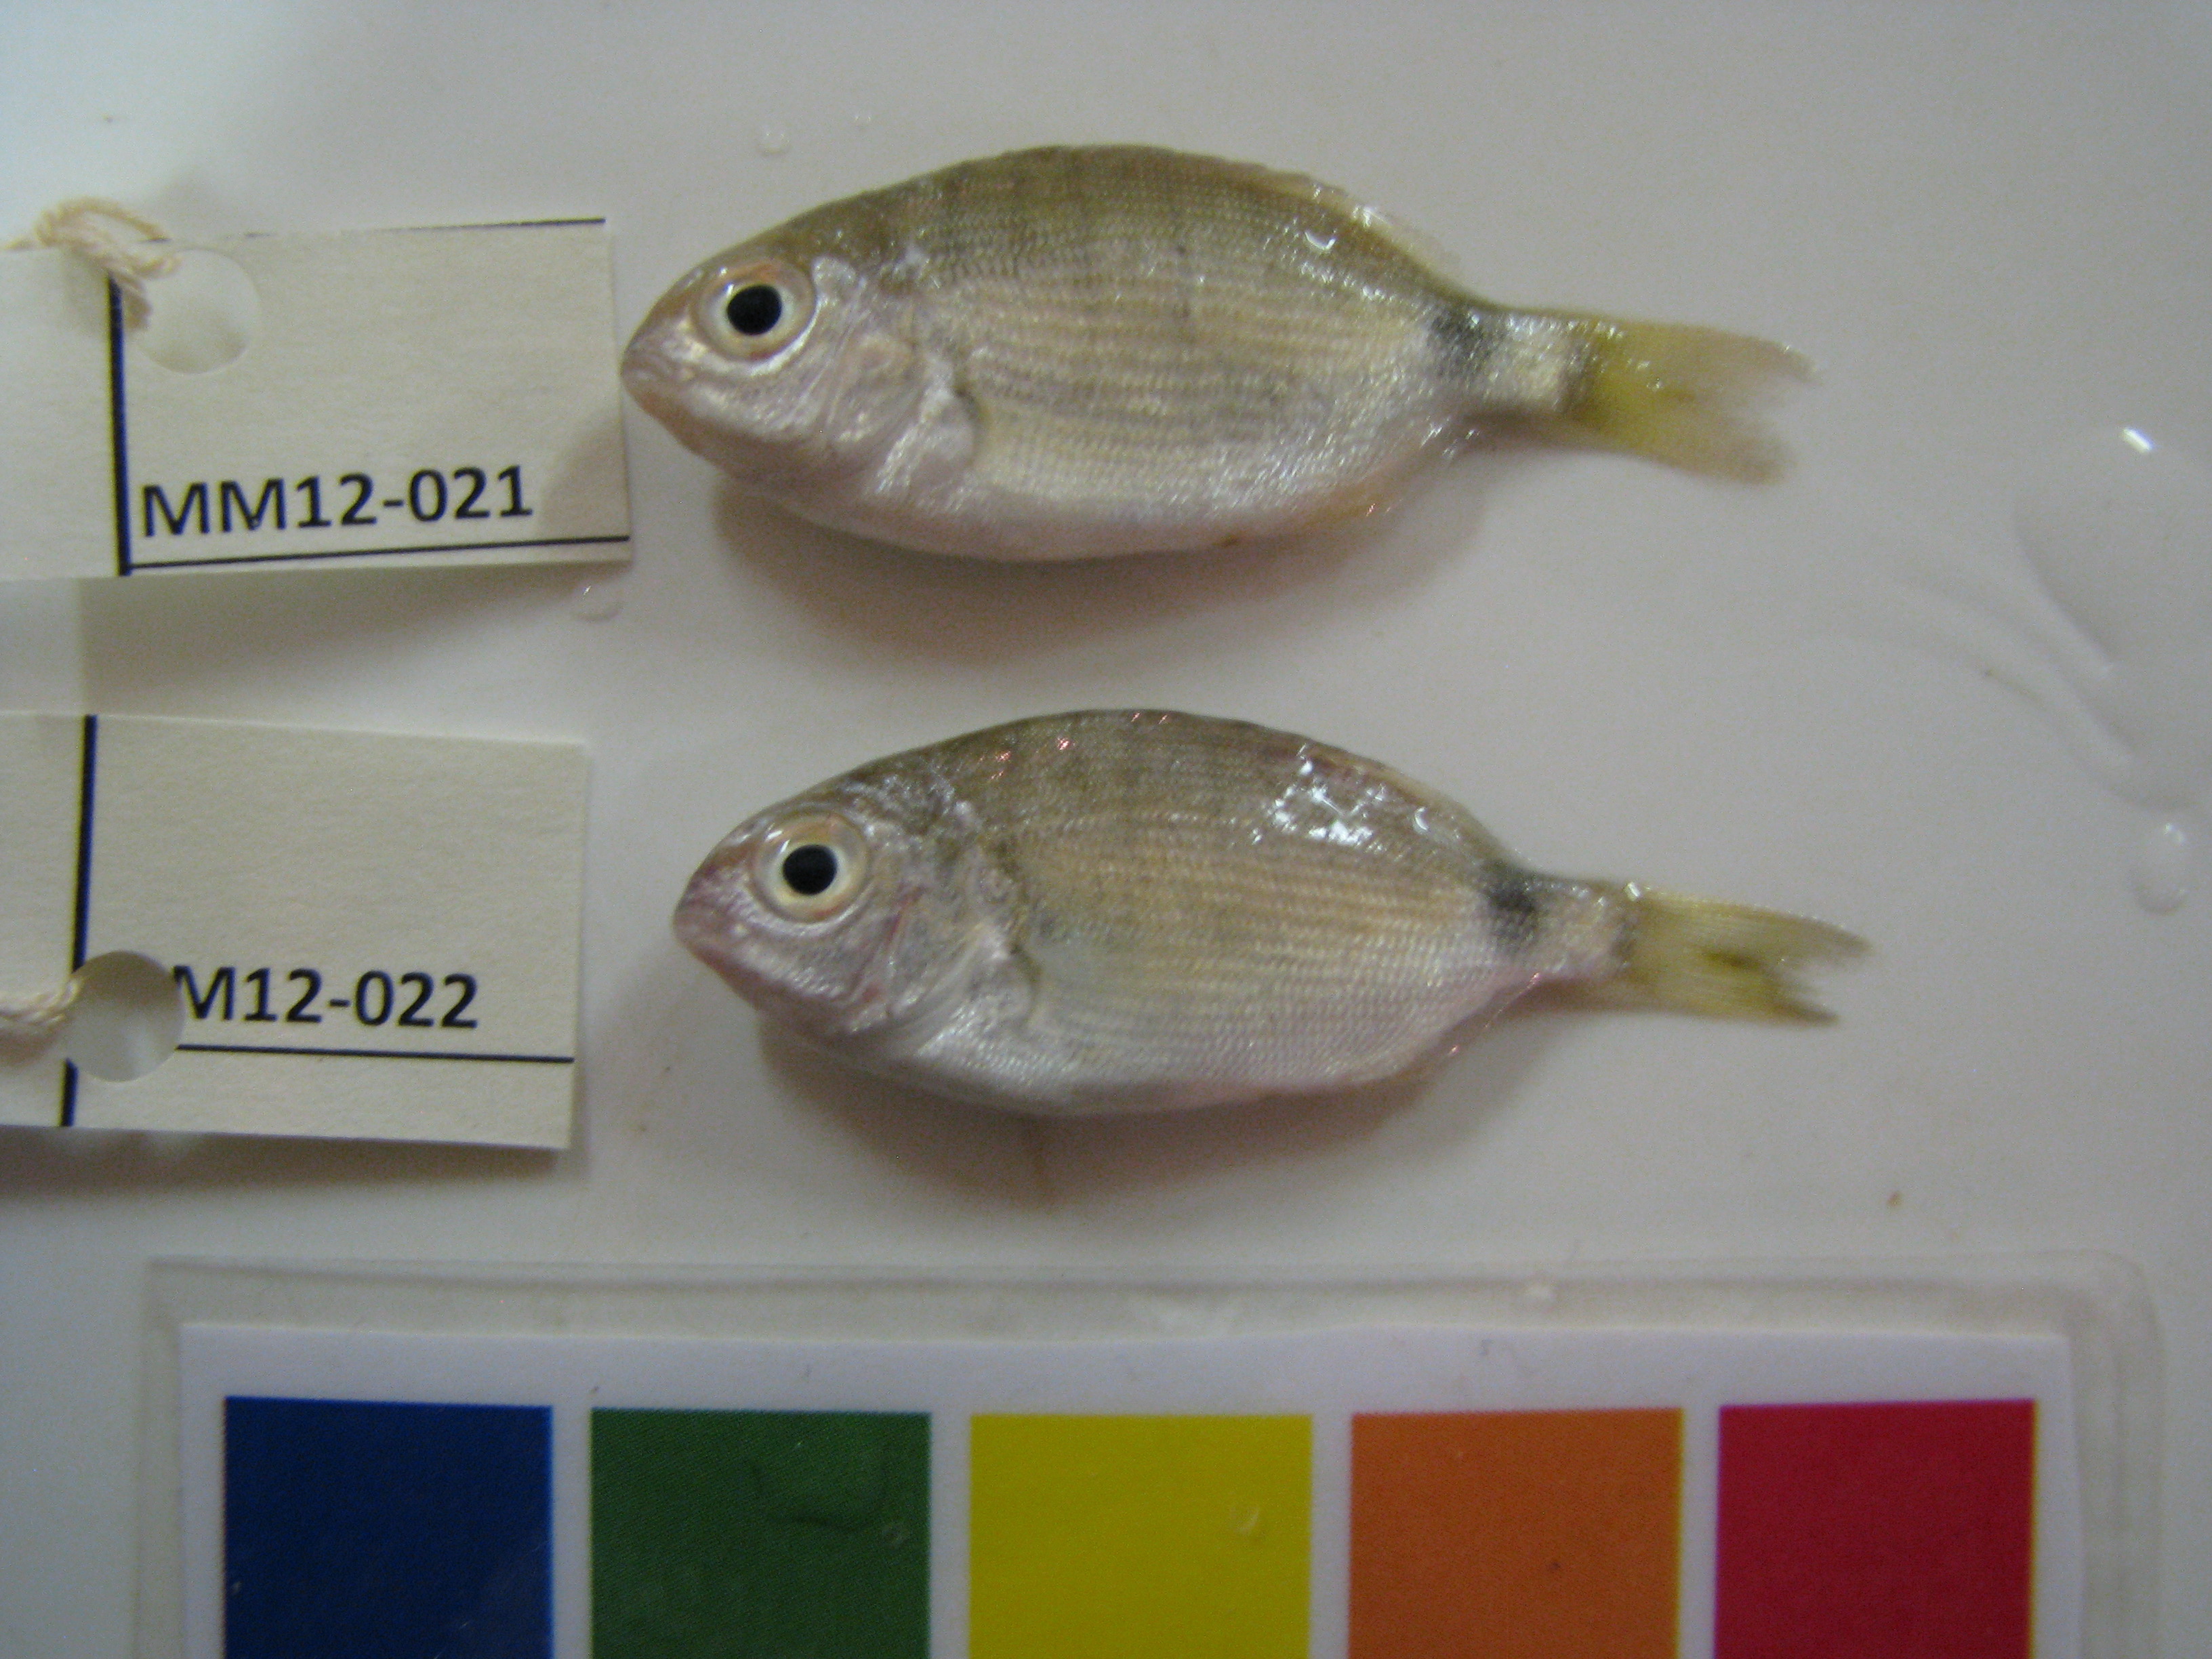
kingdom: Animalia
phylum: Chordata
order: Perciformes
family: Sparidae
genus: Diplodus
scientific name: Diplodus capensis
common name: Blacktail
